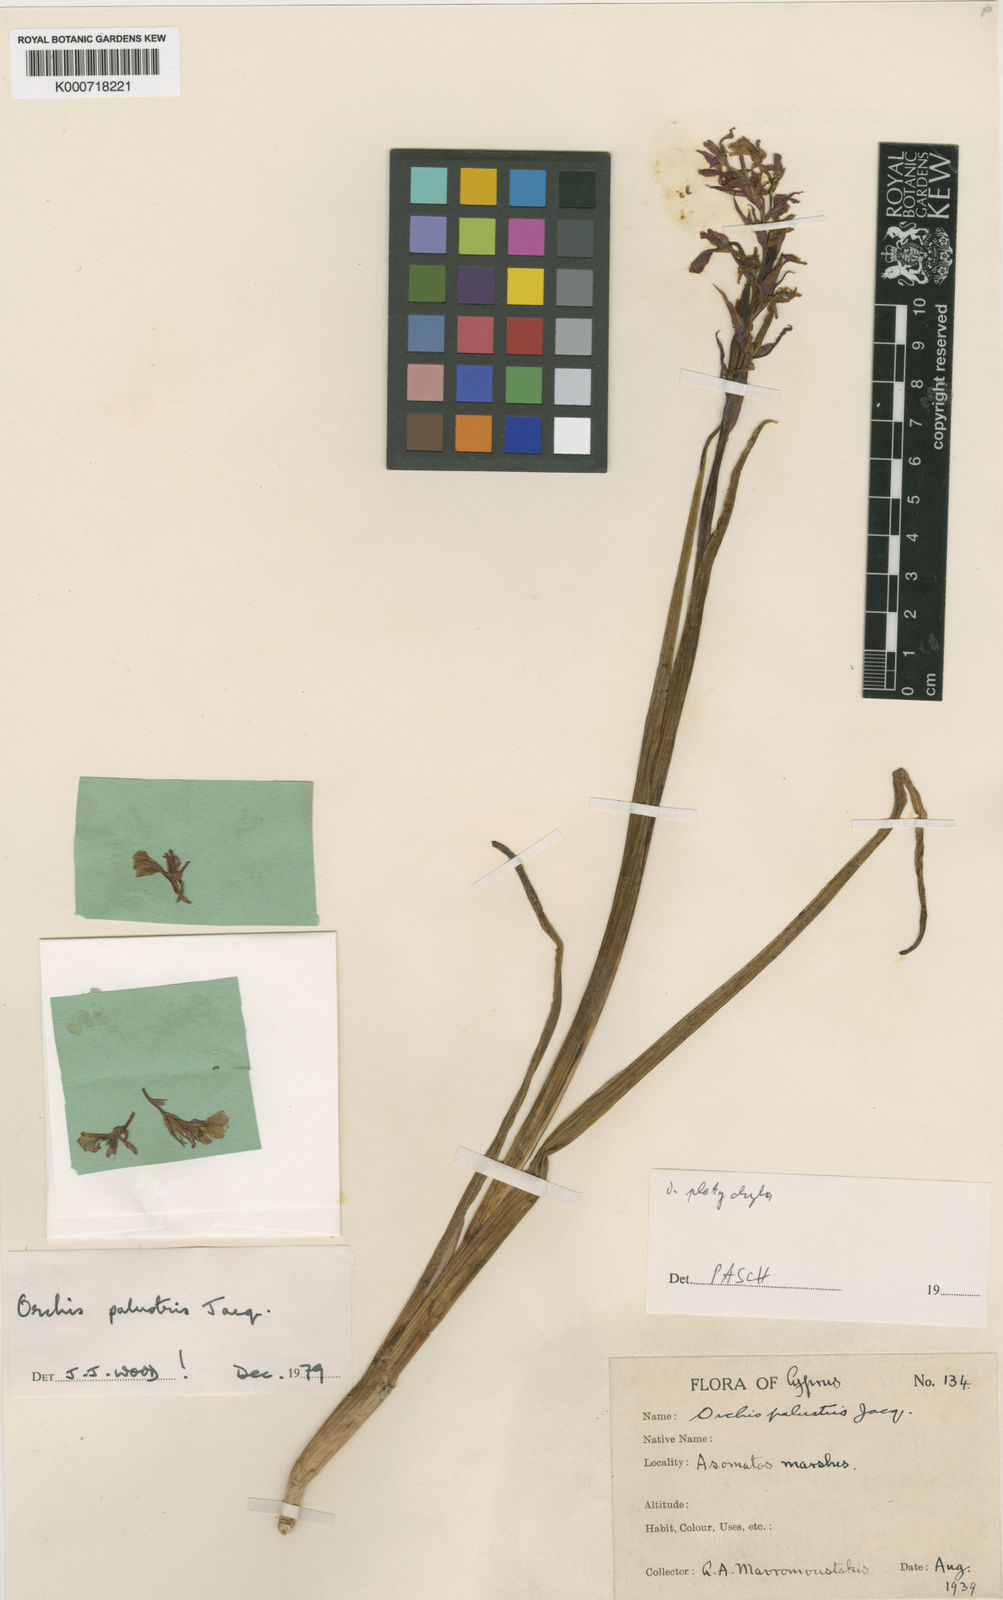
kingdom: Plantae
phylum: Tracheophyta
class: Liliopsida
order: Asparagales
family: Orchidaceae
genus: Anacamptis
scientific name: Anacamptis palustris
